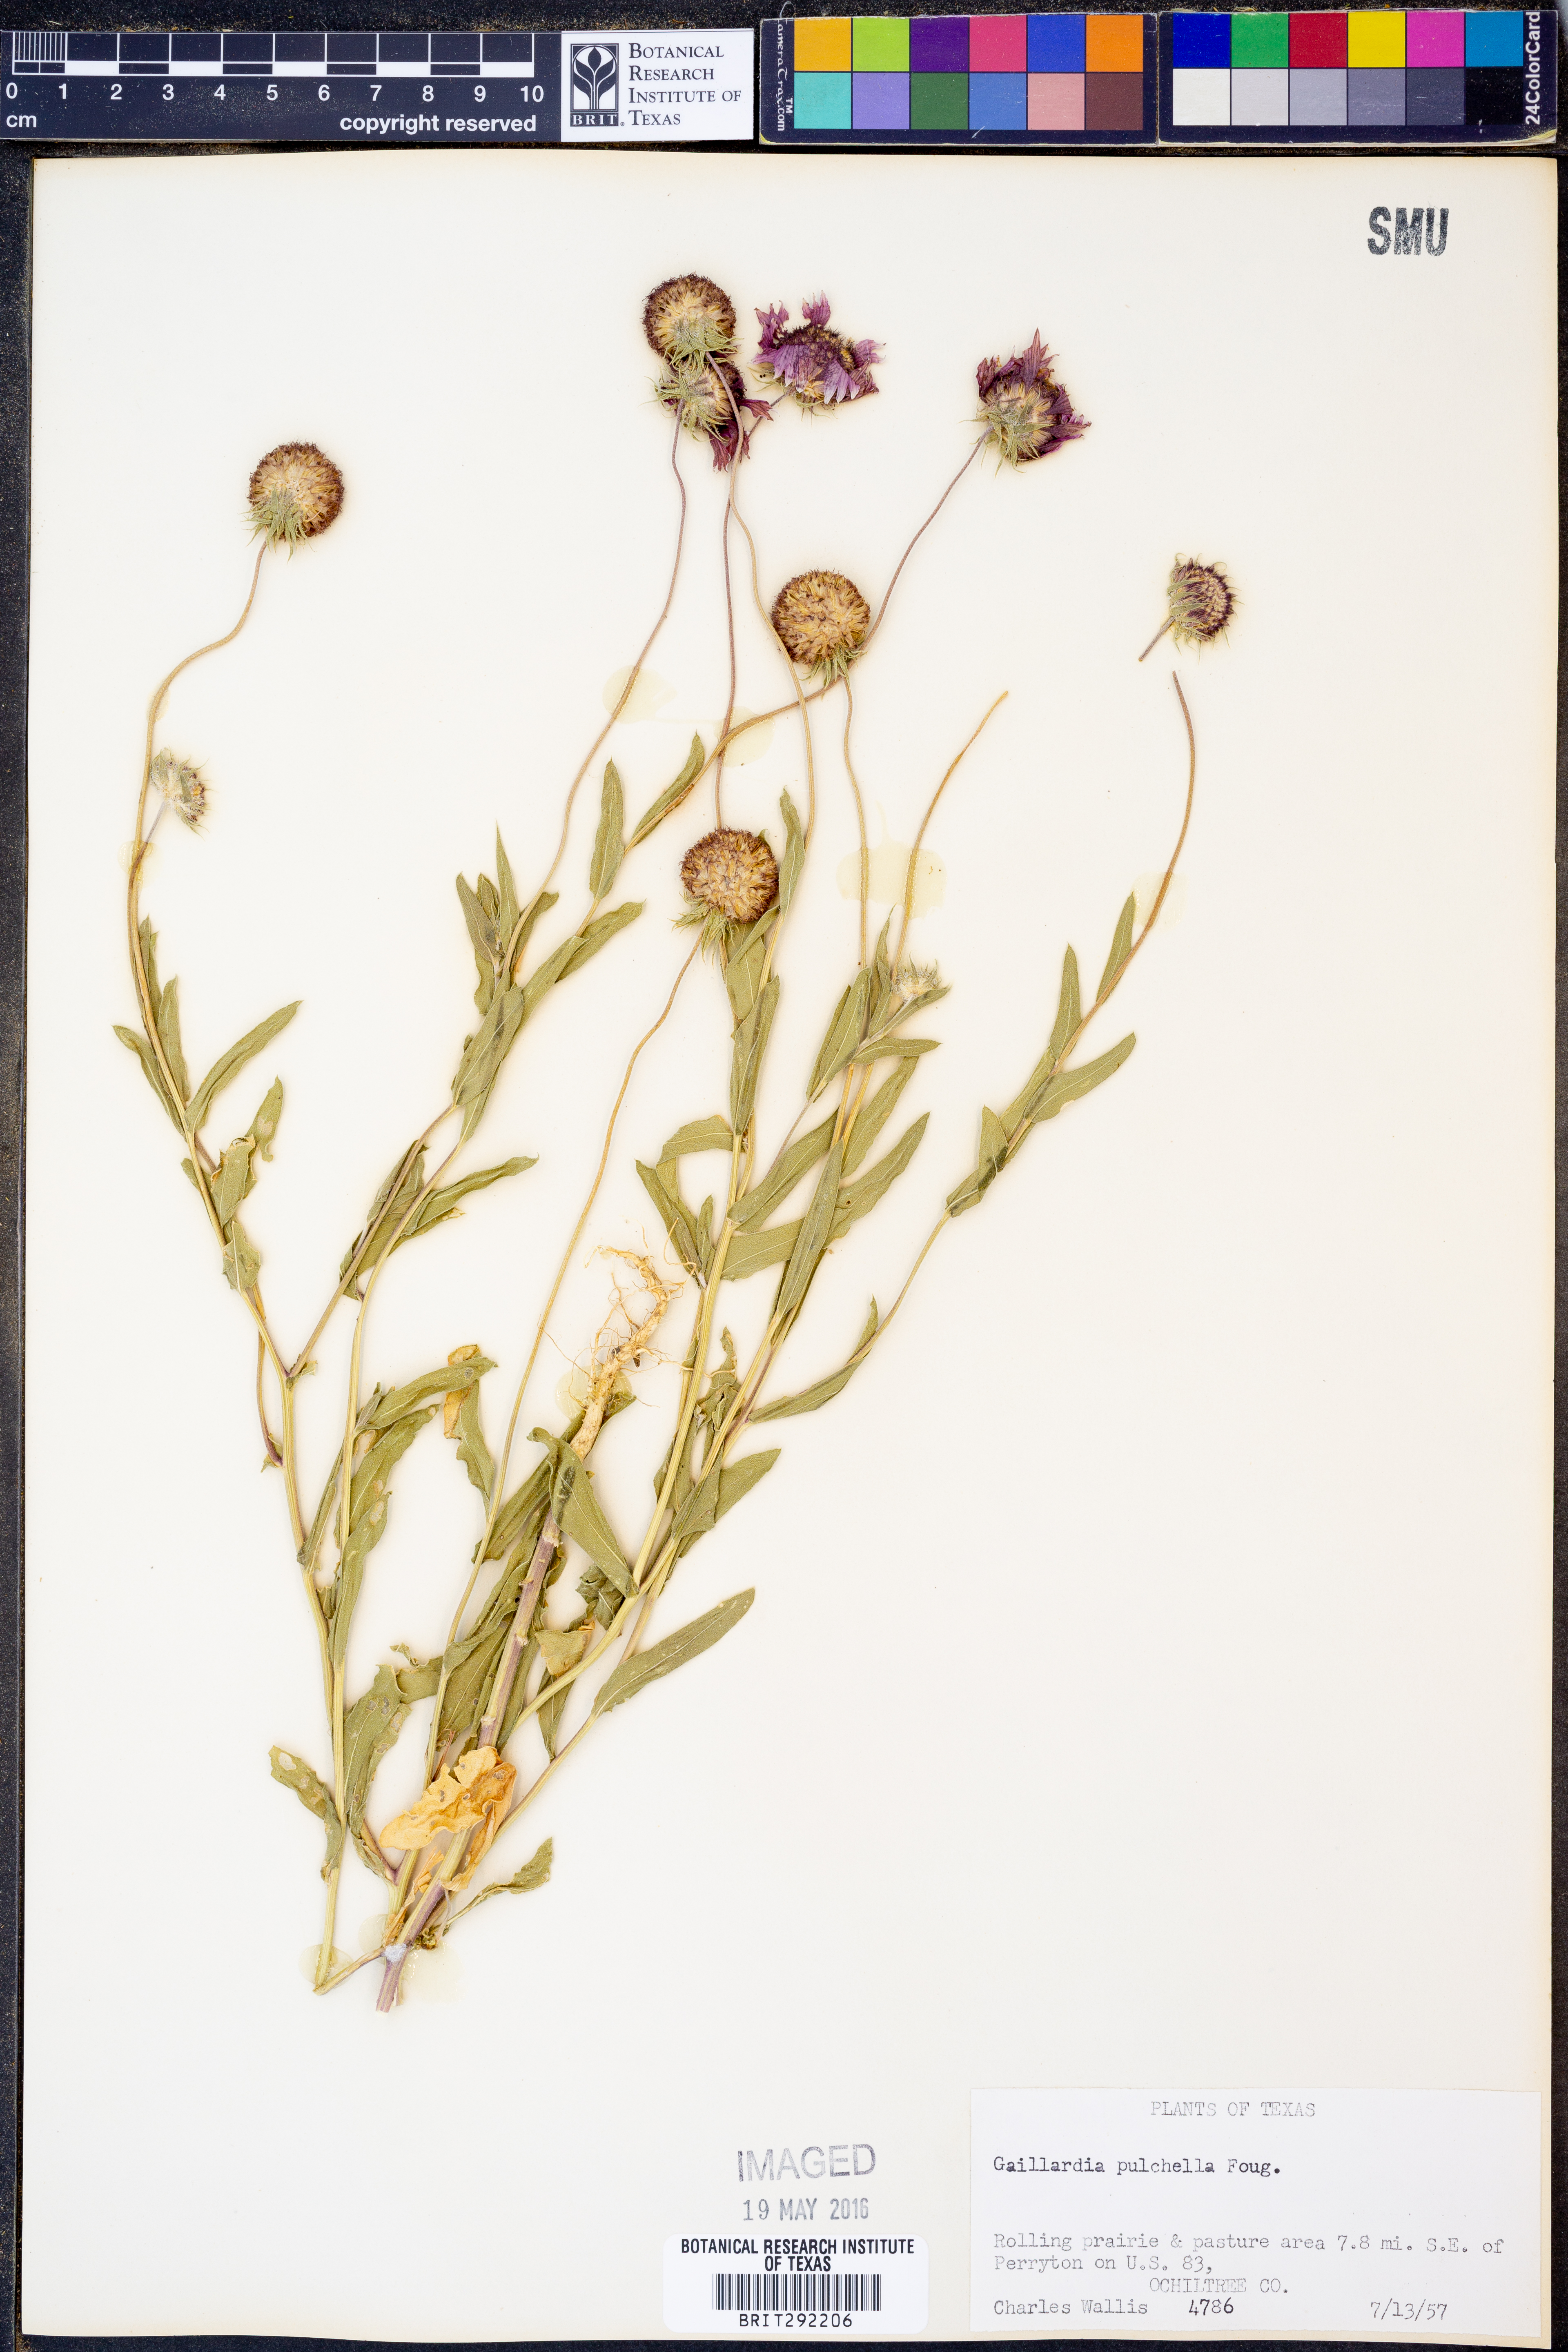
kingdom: Plantae
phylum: Tracheophyta
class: Magnoliopsida
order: Asterales
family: Asteraceae
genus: Gaillardia
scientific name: Gaillardia pulchella
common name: Firewheel
